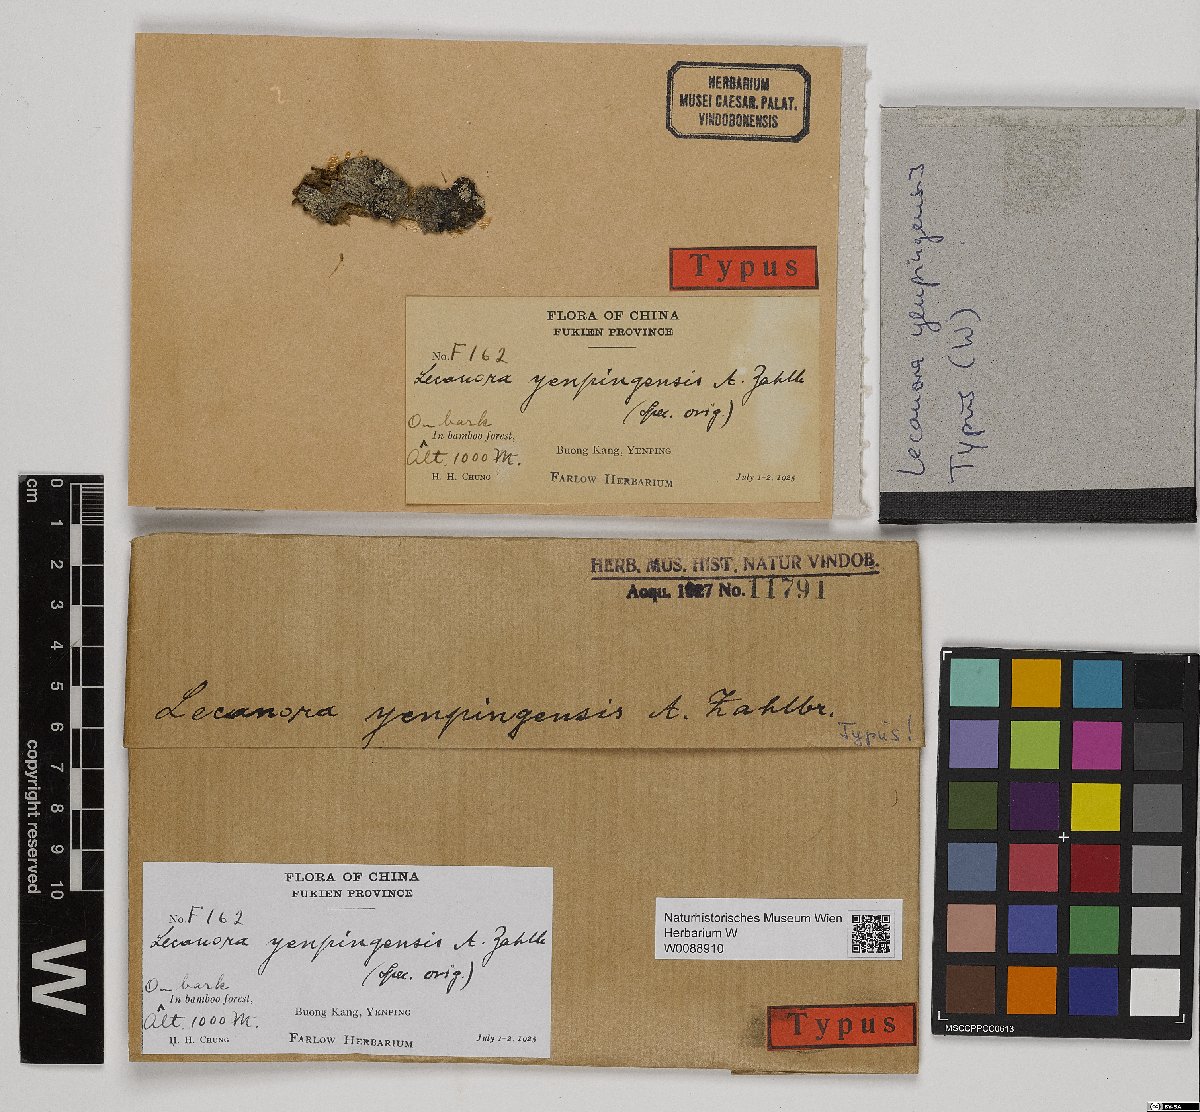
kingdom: Fungi
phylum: Ascomycota
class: Lecanoromycetes
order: Lecanorales
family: Lecanoraceae
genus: Lecanora
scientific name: Lecanora yenpingensis
